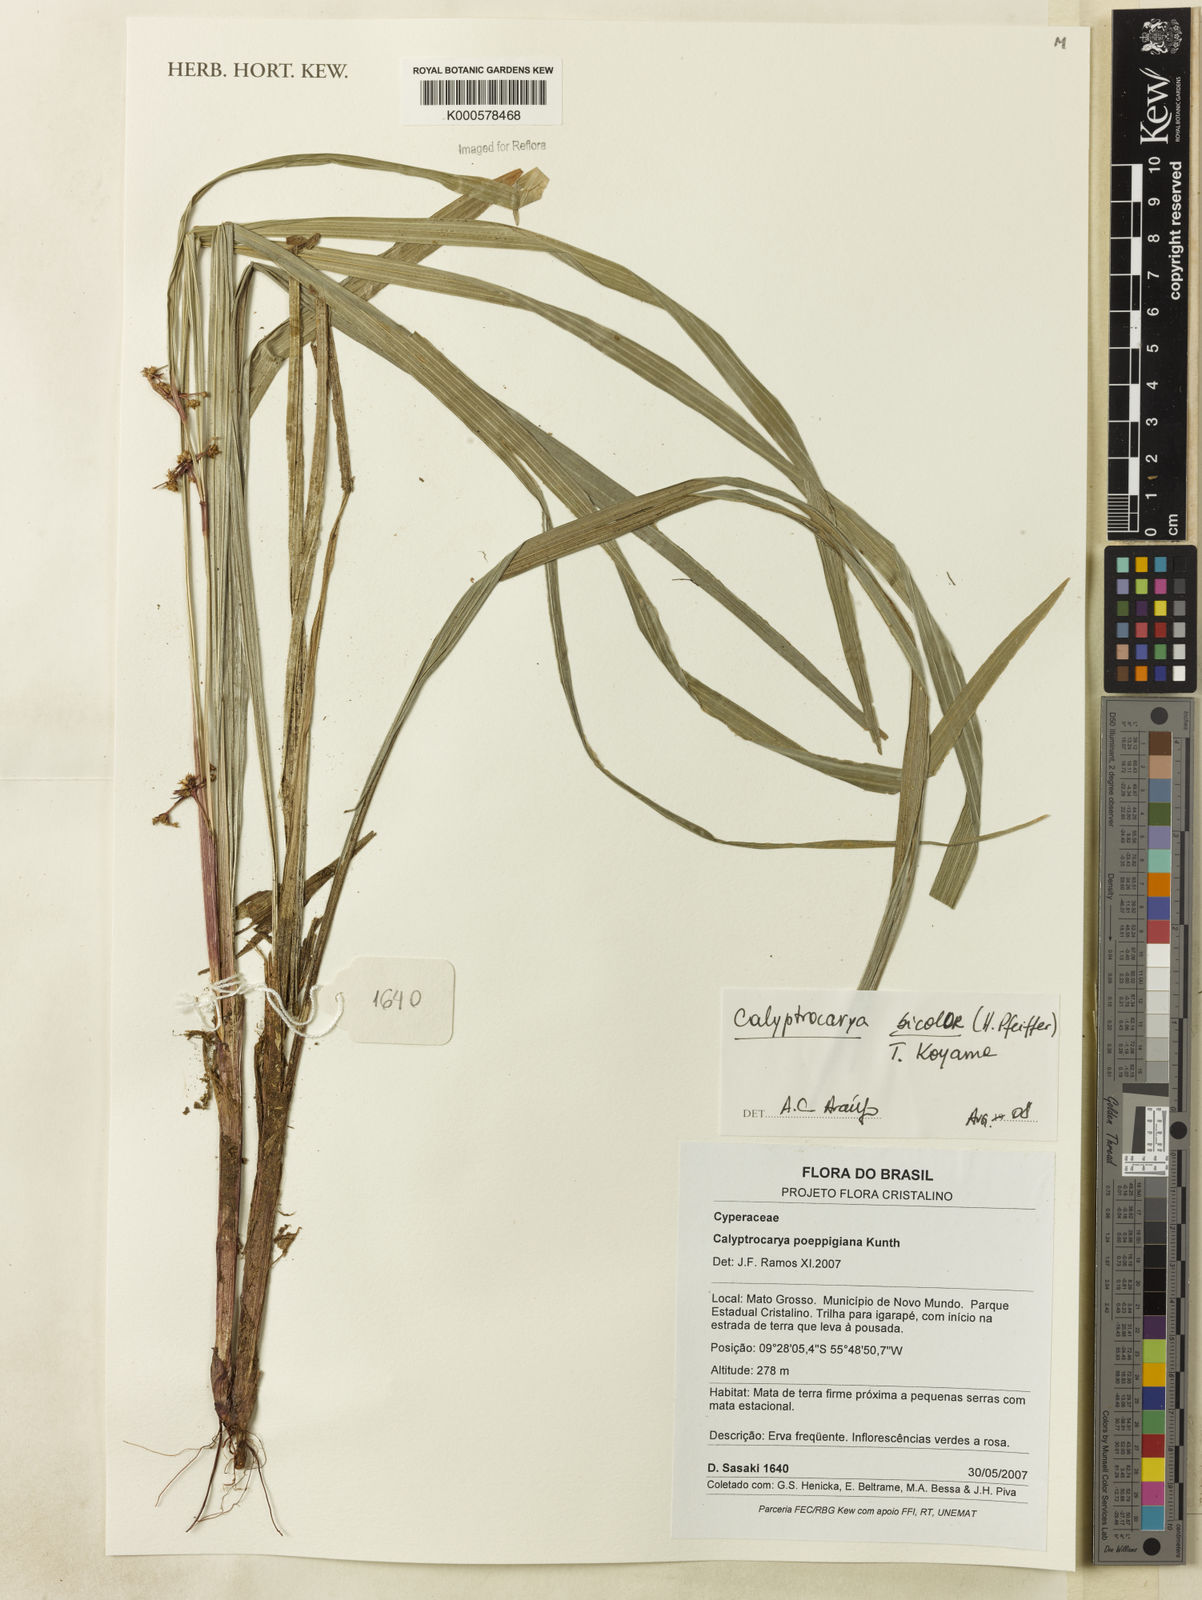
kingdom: Plantae
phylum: Tracheophyta
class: Liliopsida
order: Poales
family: Cyperaceae
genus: Calyptrocarya
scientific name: Calyptrocarya bicolor
